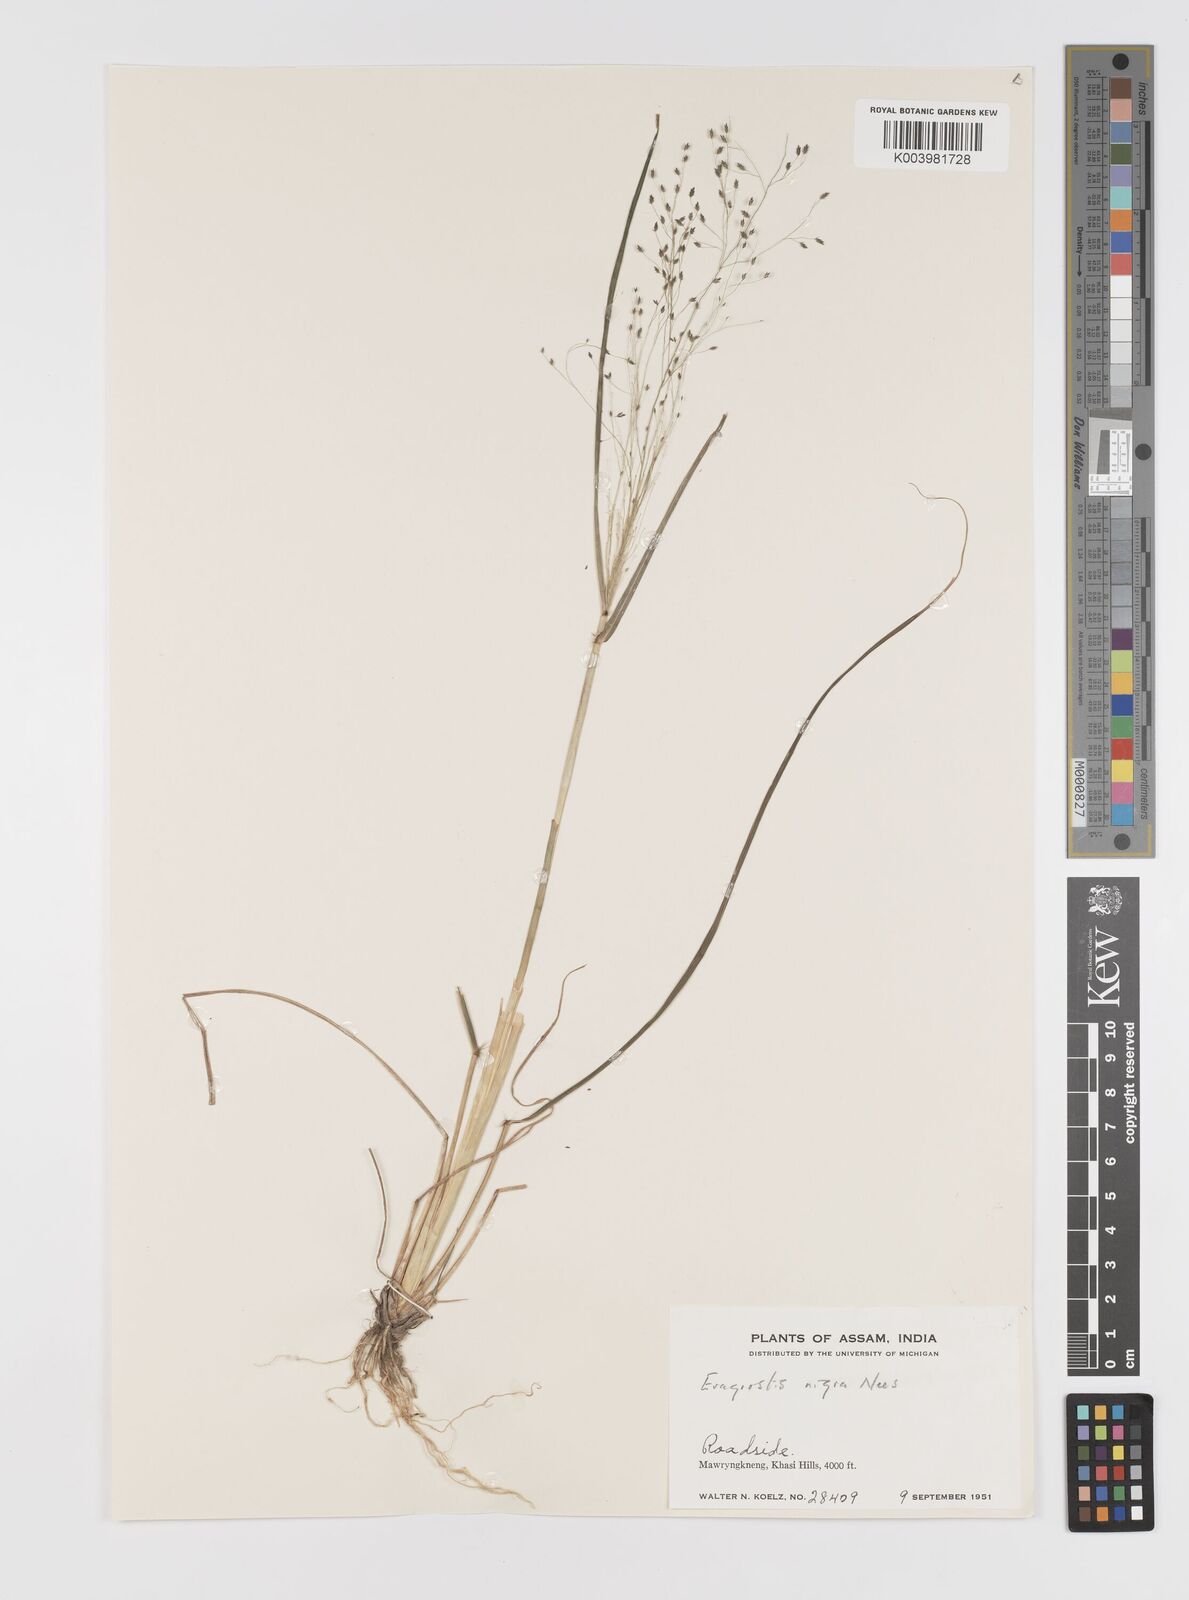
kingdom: Plantae
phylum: Tracheophyta
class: Liliopsida
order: Poales
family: Poaceae
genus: Eragrostis
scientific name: Eragrostis nigra
